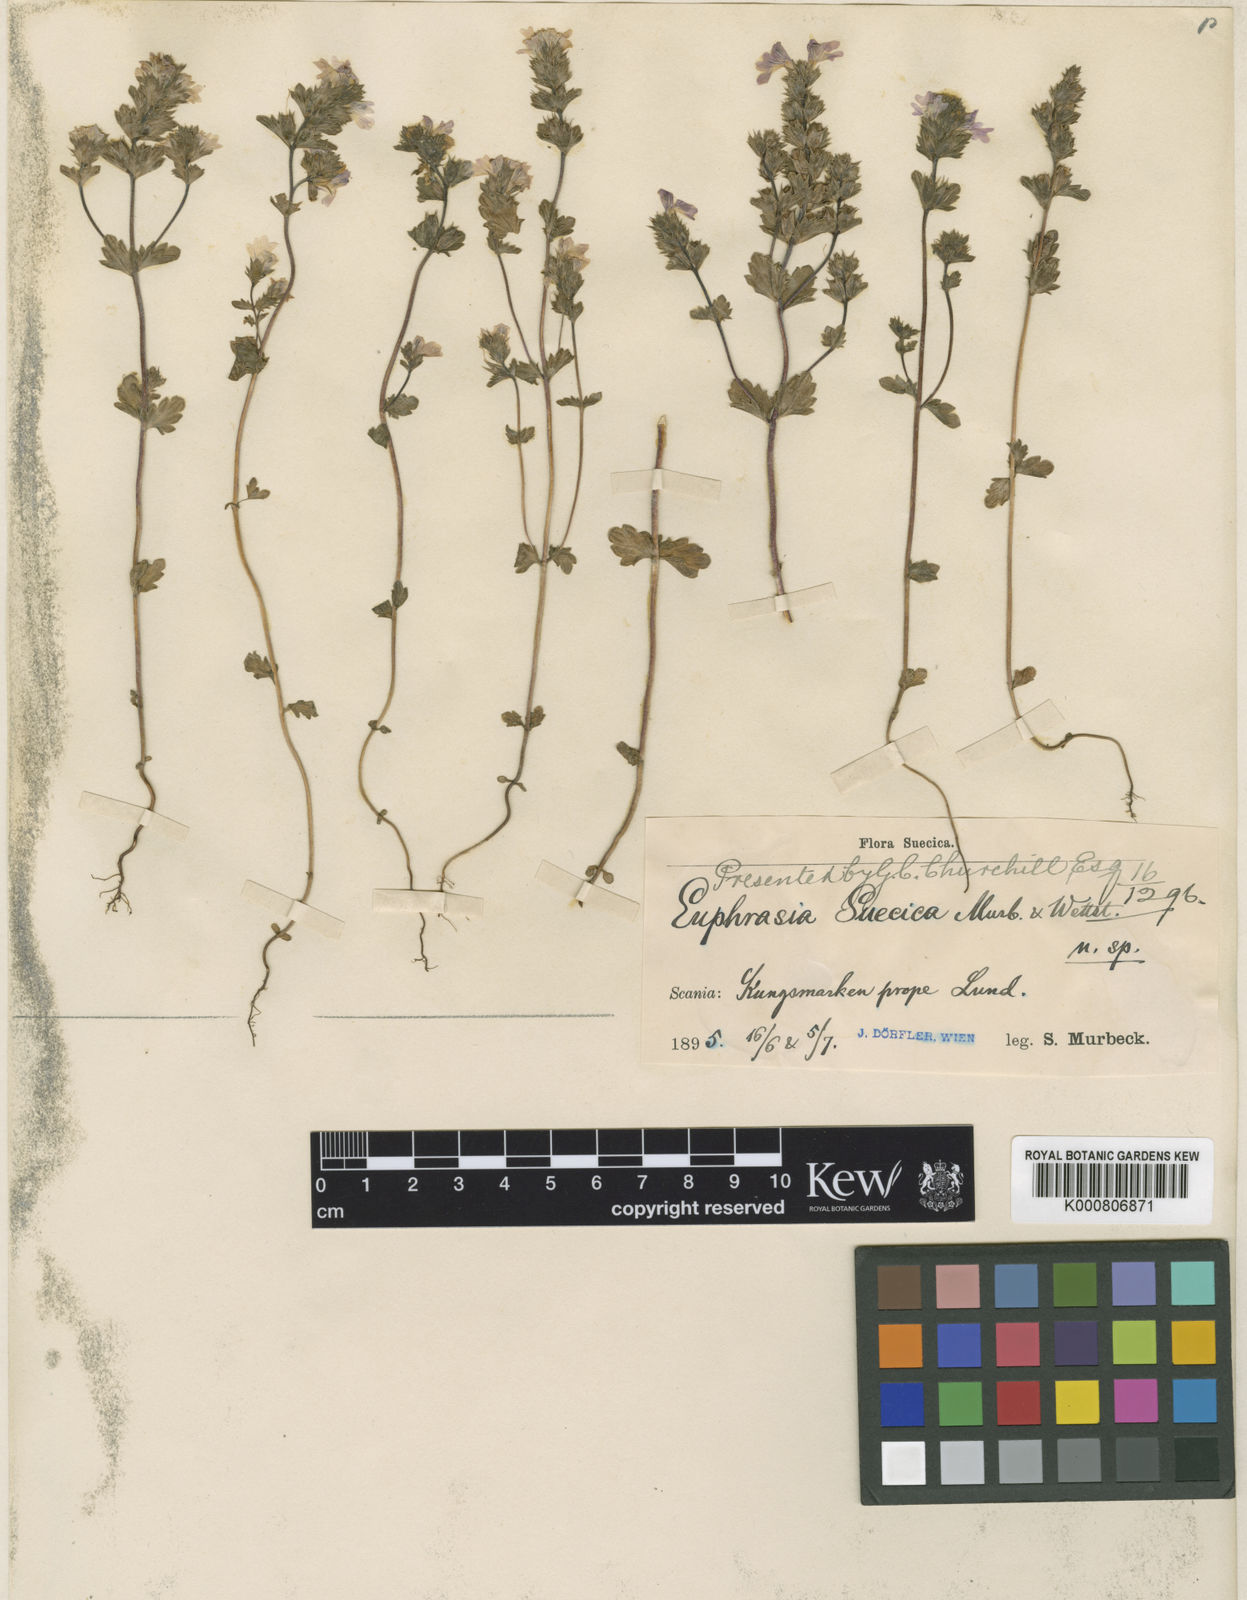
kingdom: Plantae
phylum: Tracheophyta
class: Magnoliopsida
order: Lamiales
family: Orobanchaceae
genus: Euphrasia
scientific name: Euphrasia vernalis
